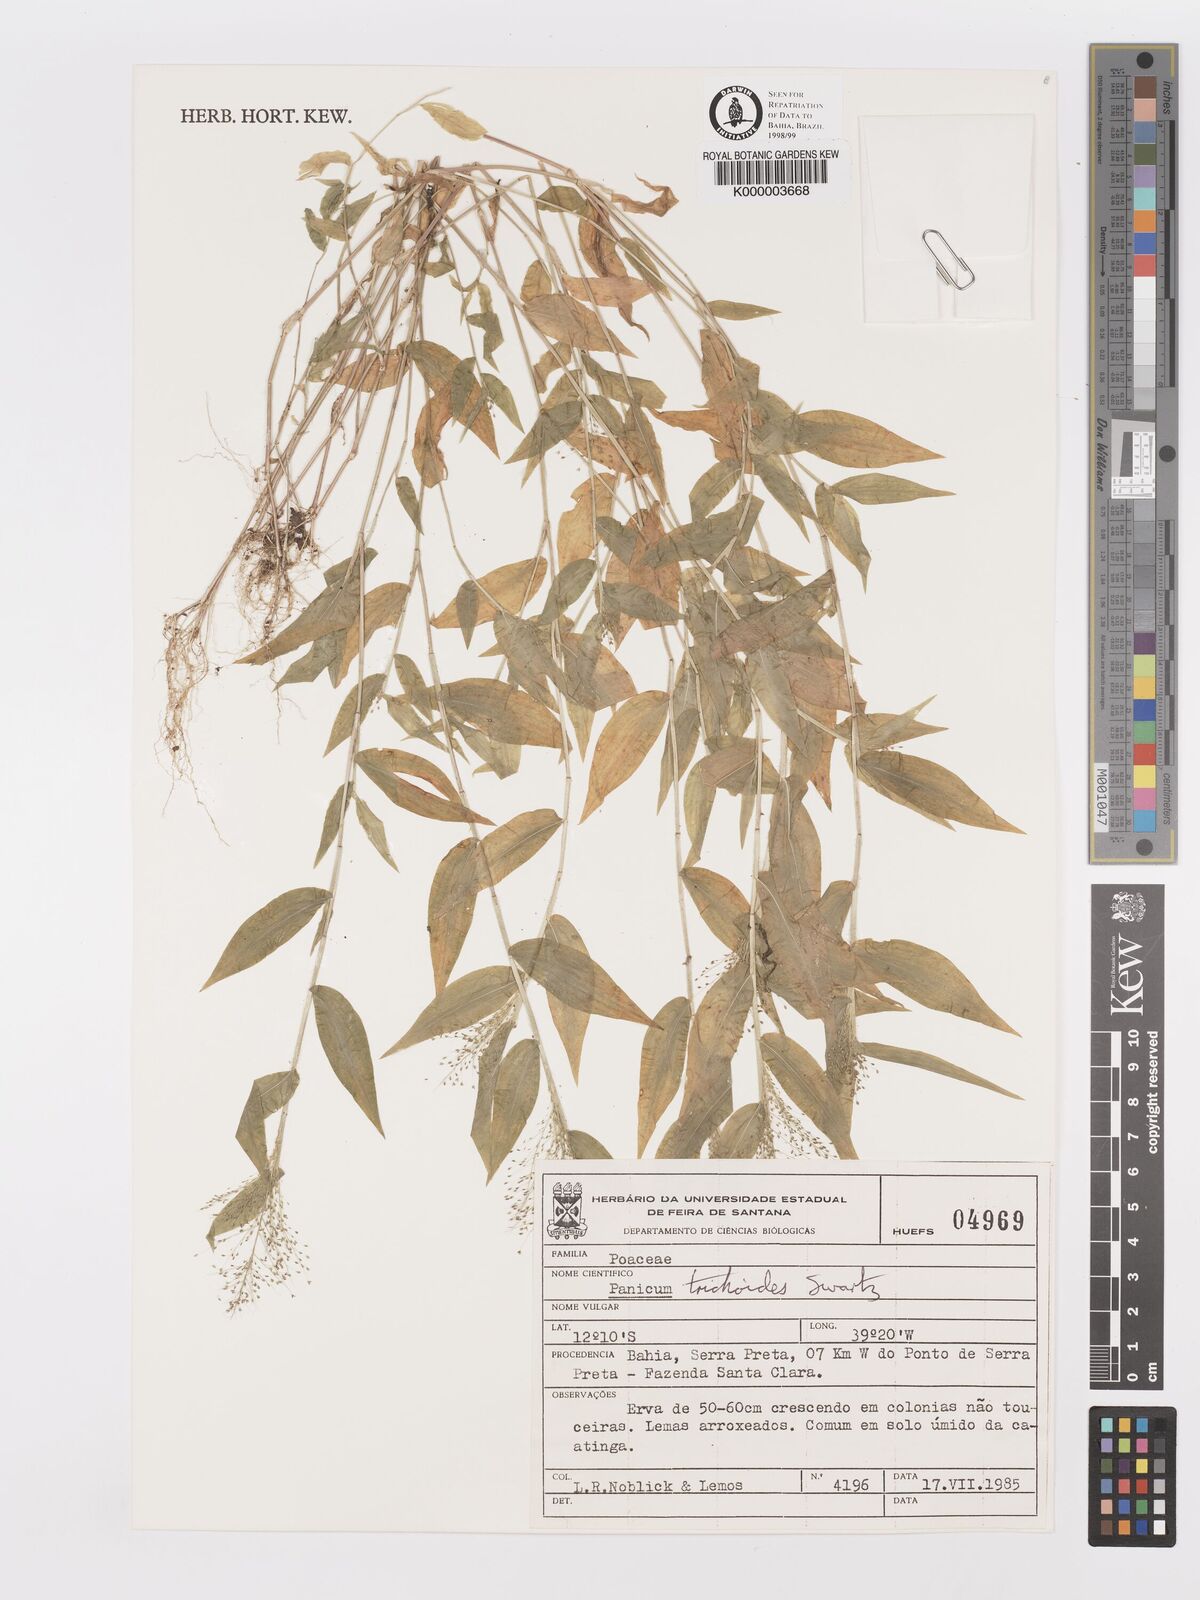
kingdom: Plantae
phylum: Tracheophyta
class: Liliopsida
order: Poales
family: Poaceae
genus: Panicum
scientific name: Panicum
